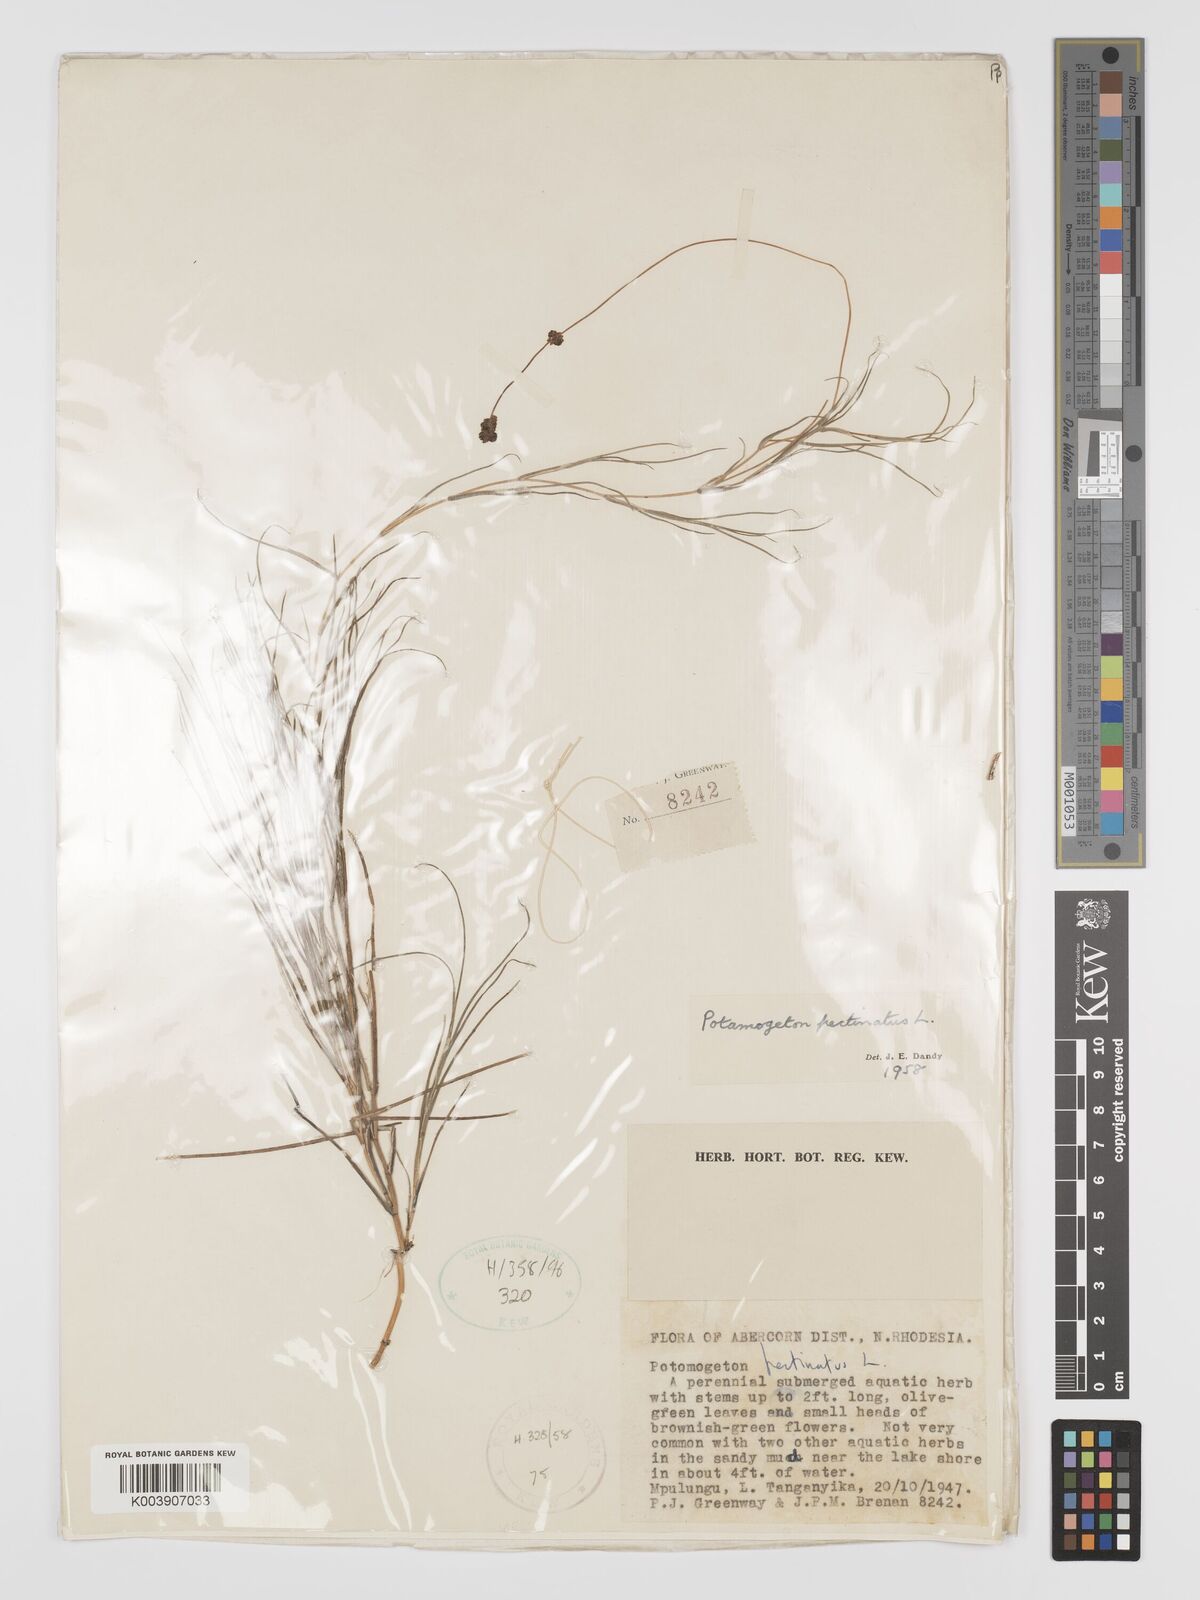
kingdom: Plantae
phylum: Tracheophyta
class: Liliopsida
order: Alismatales
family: Potamogetonaceae
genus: Stuckenia
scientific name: Stuckenia pectinata
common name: Sago pondweed
